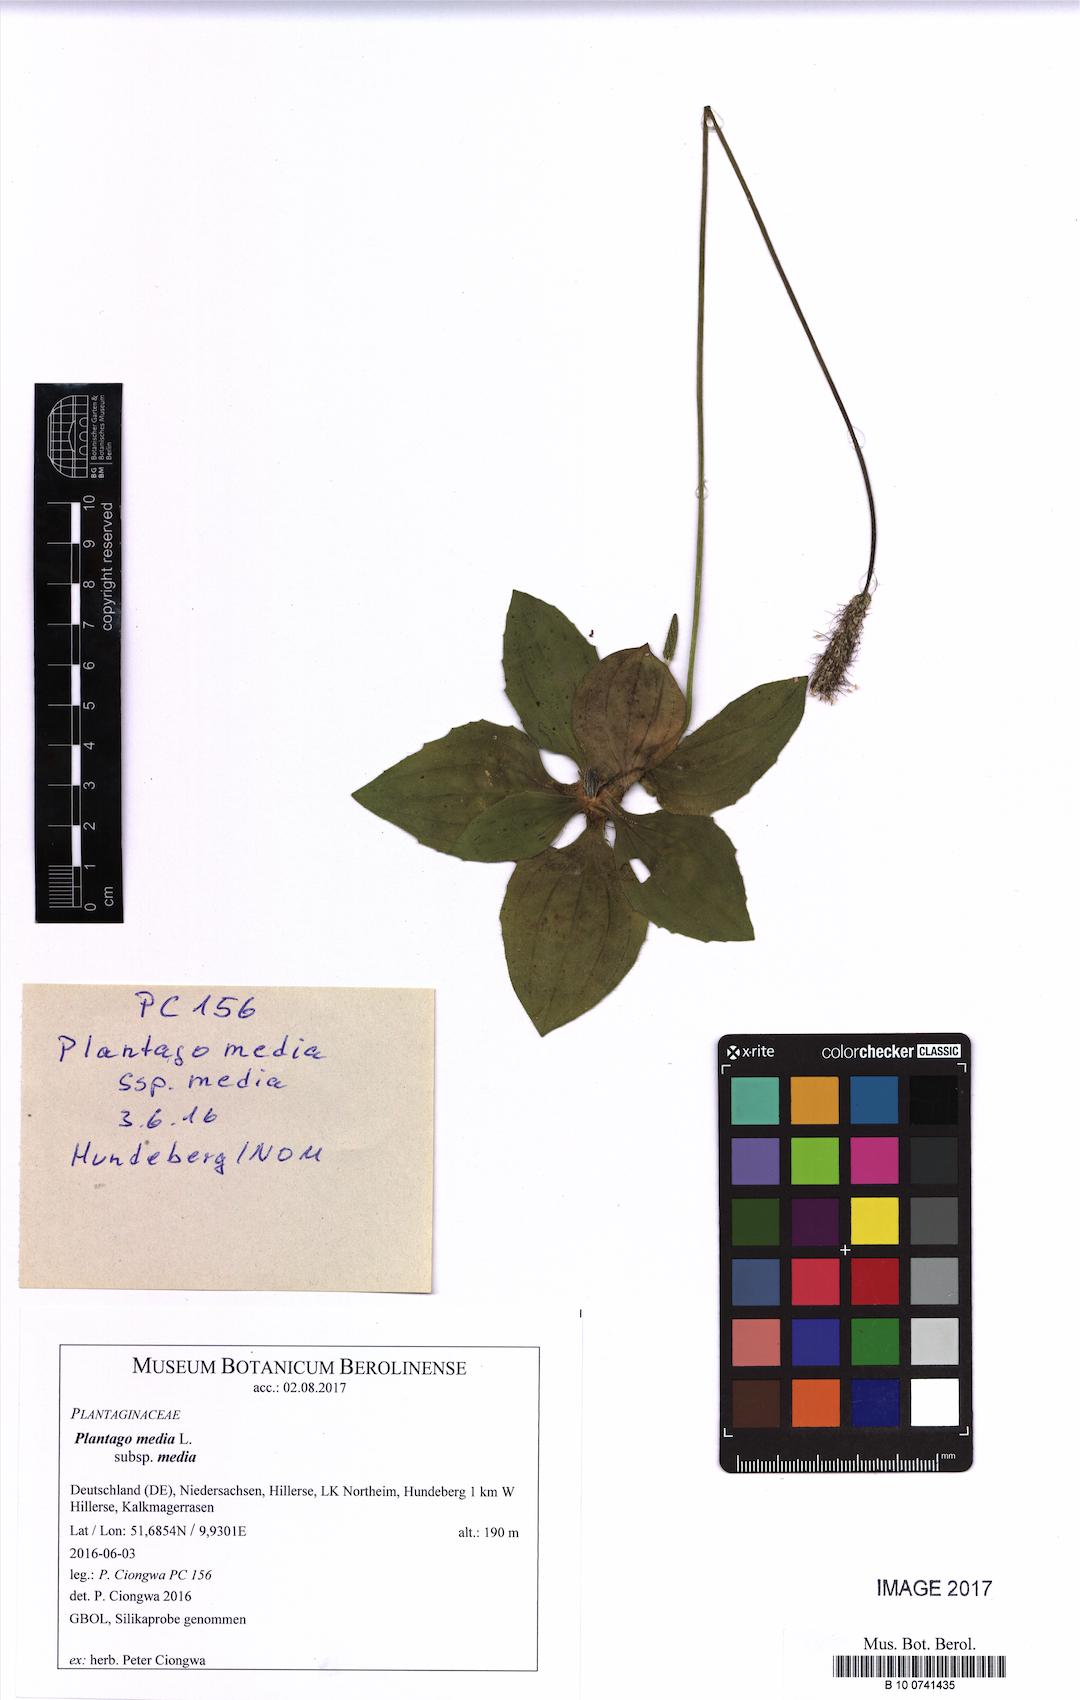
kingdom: Plantae
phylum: Tracheophyta
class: Magnoliopsida
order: Lamiales
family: Plantaginaceae
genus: Plantago
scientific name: Plantago media
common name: Hoary plantain
